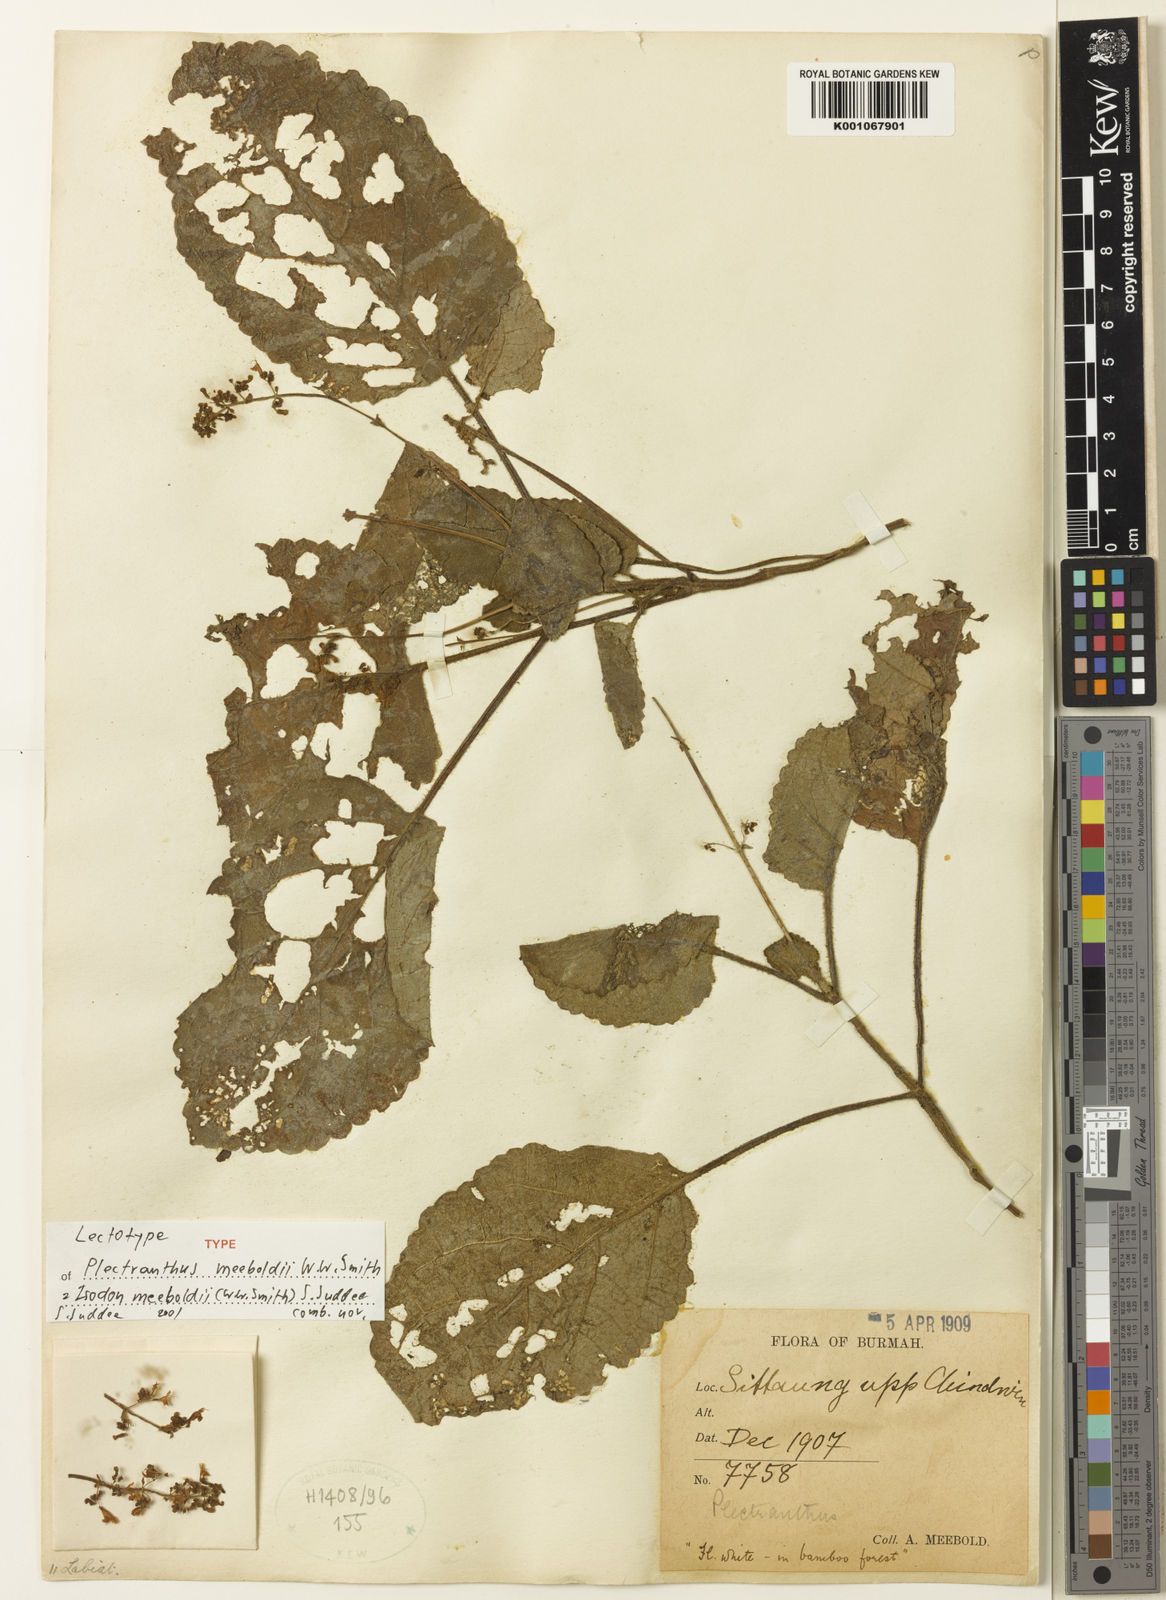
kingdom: Plantae
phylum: Tracheophyta
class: Magnoliopsida
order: Lamiales
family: Lamiaceae
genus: Isodon
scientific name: Isodon meeboldii
